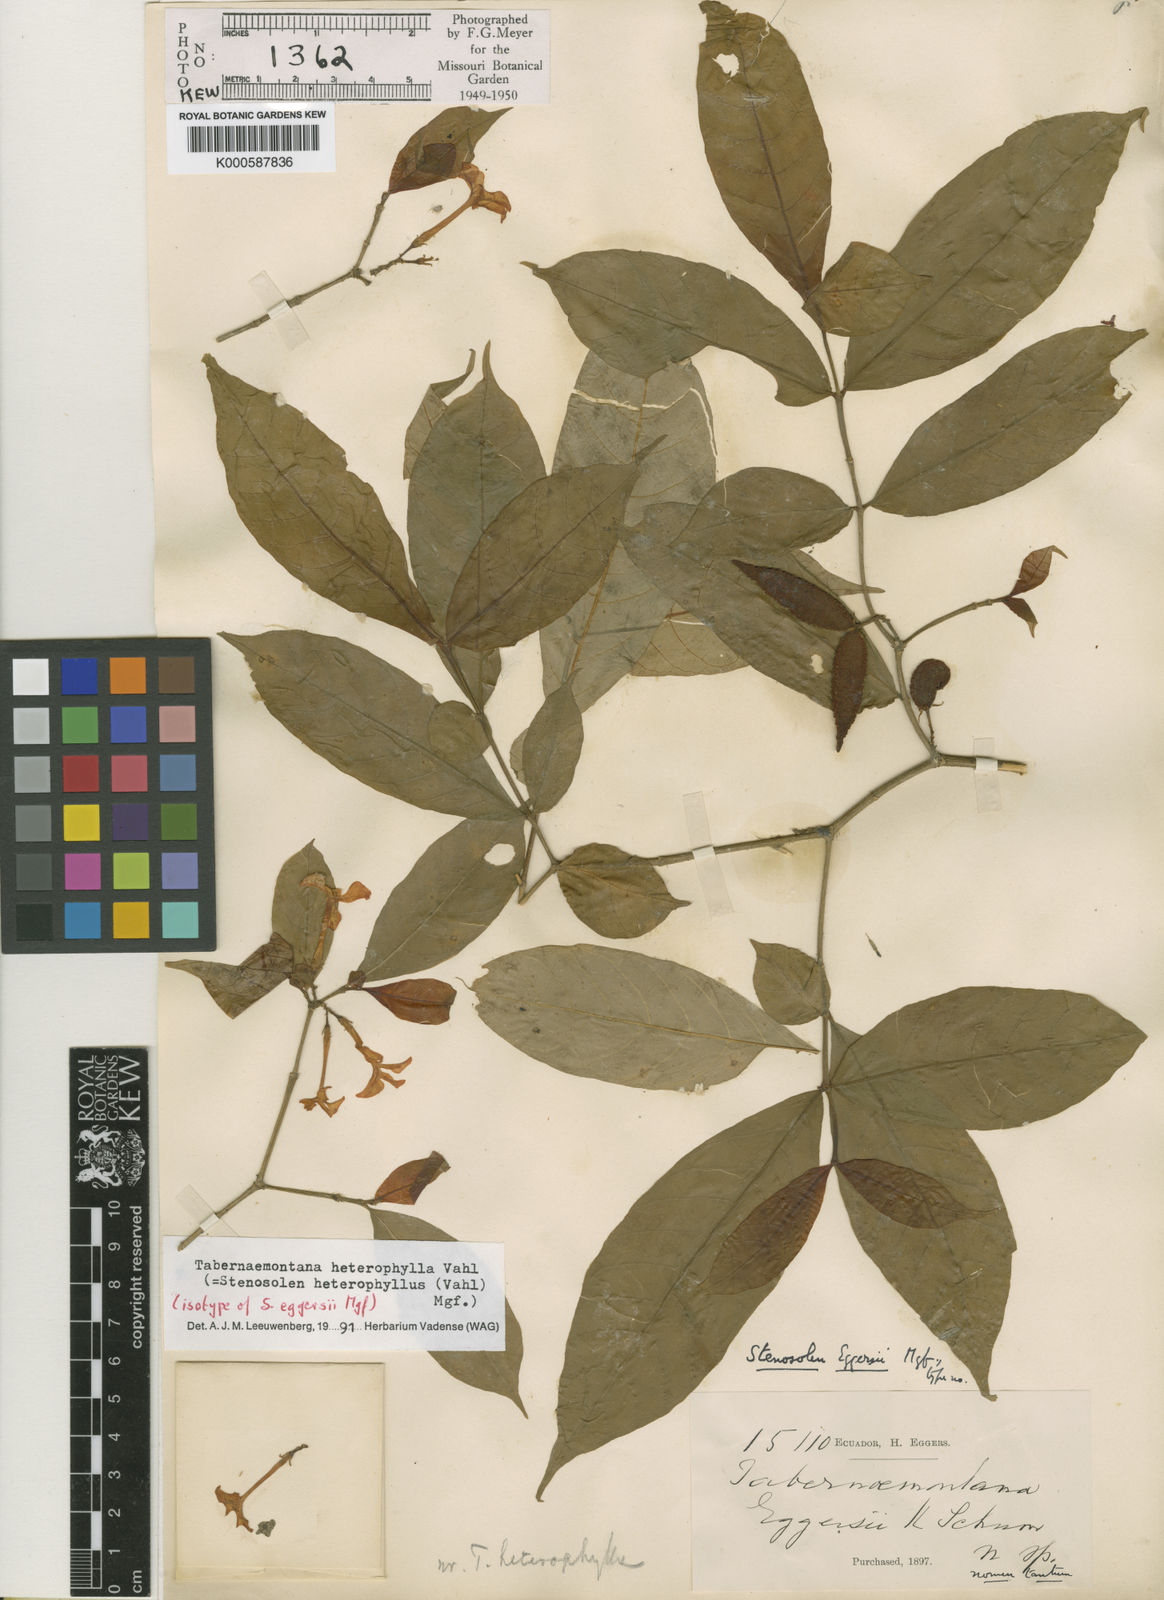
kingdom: Plantae
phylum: Tracheophyta
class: Magnoliopsida
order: Gentianales
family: Apocynaceae
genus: Tabernaemontana
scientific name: Tabernaemontana heterophylla
